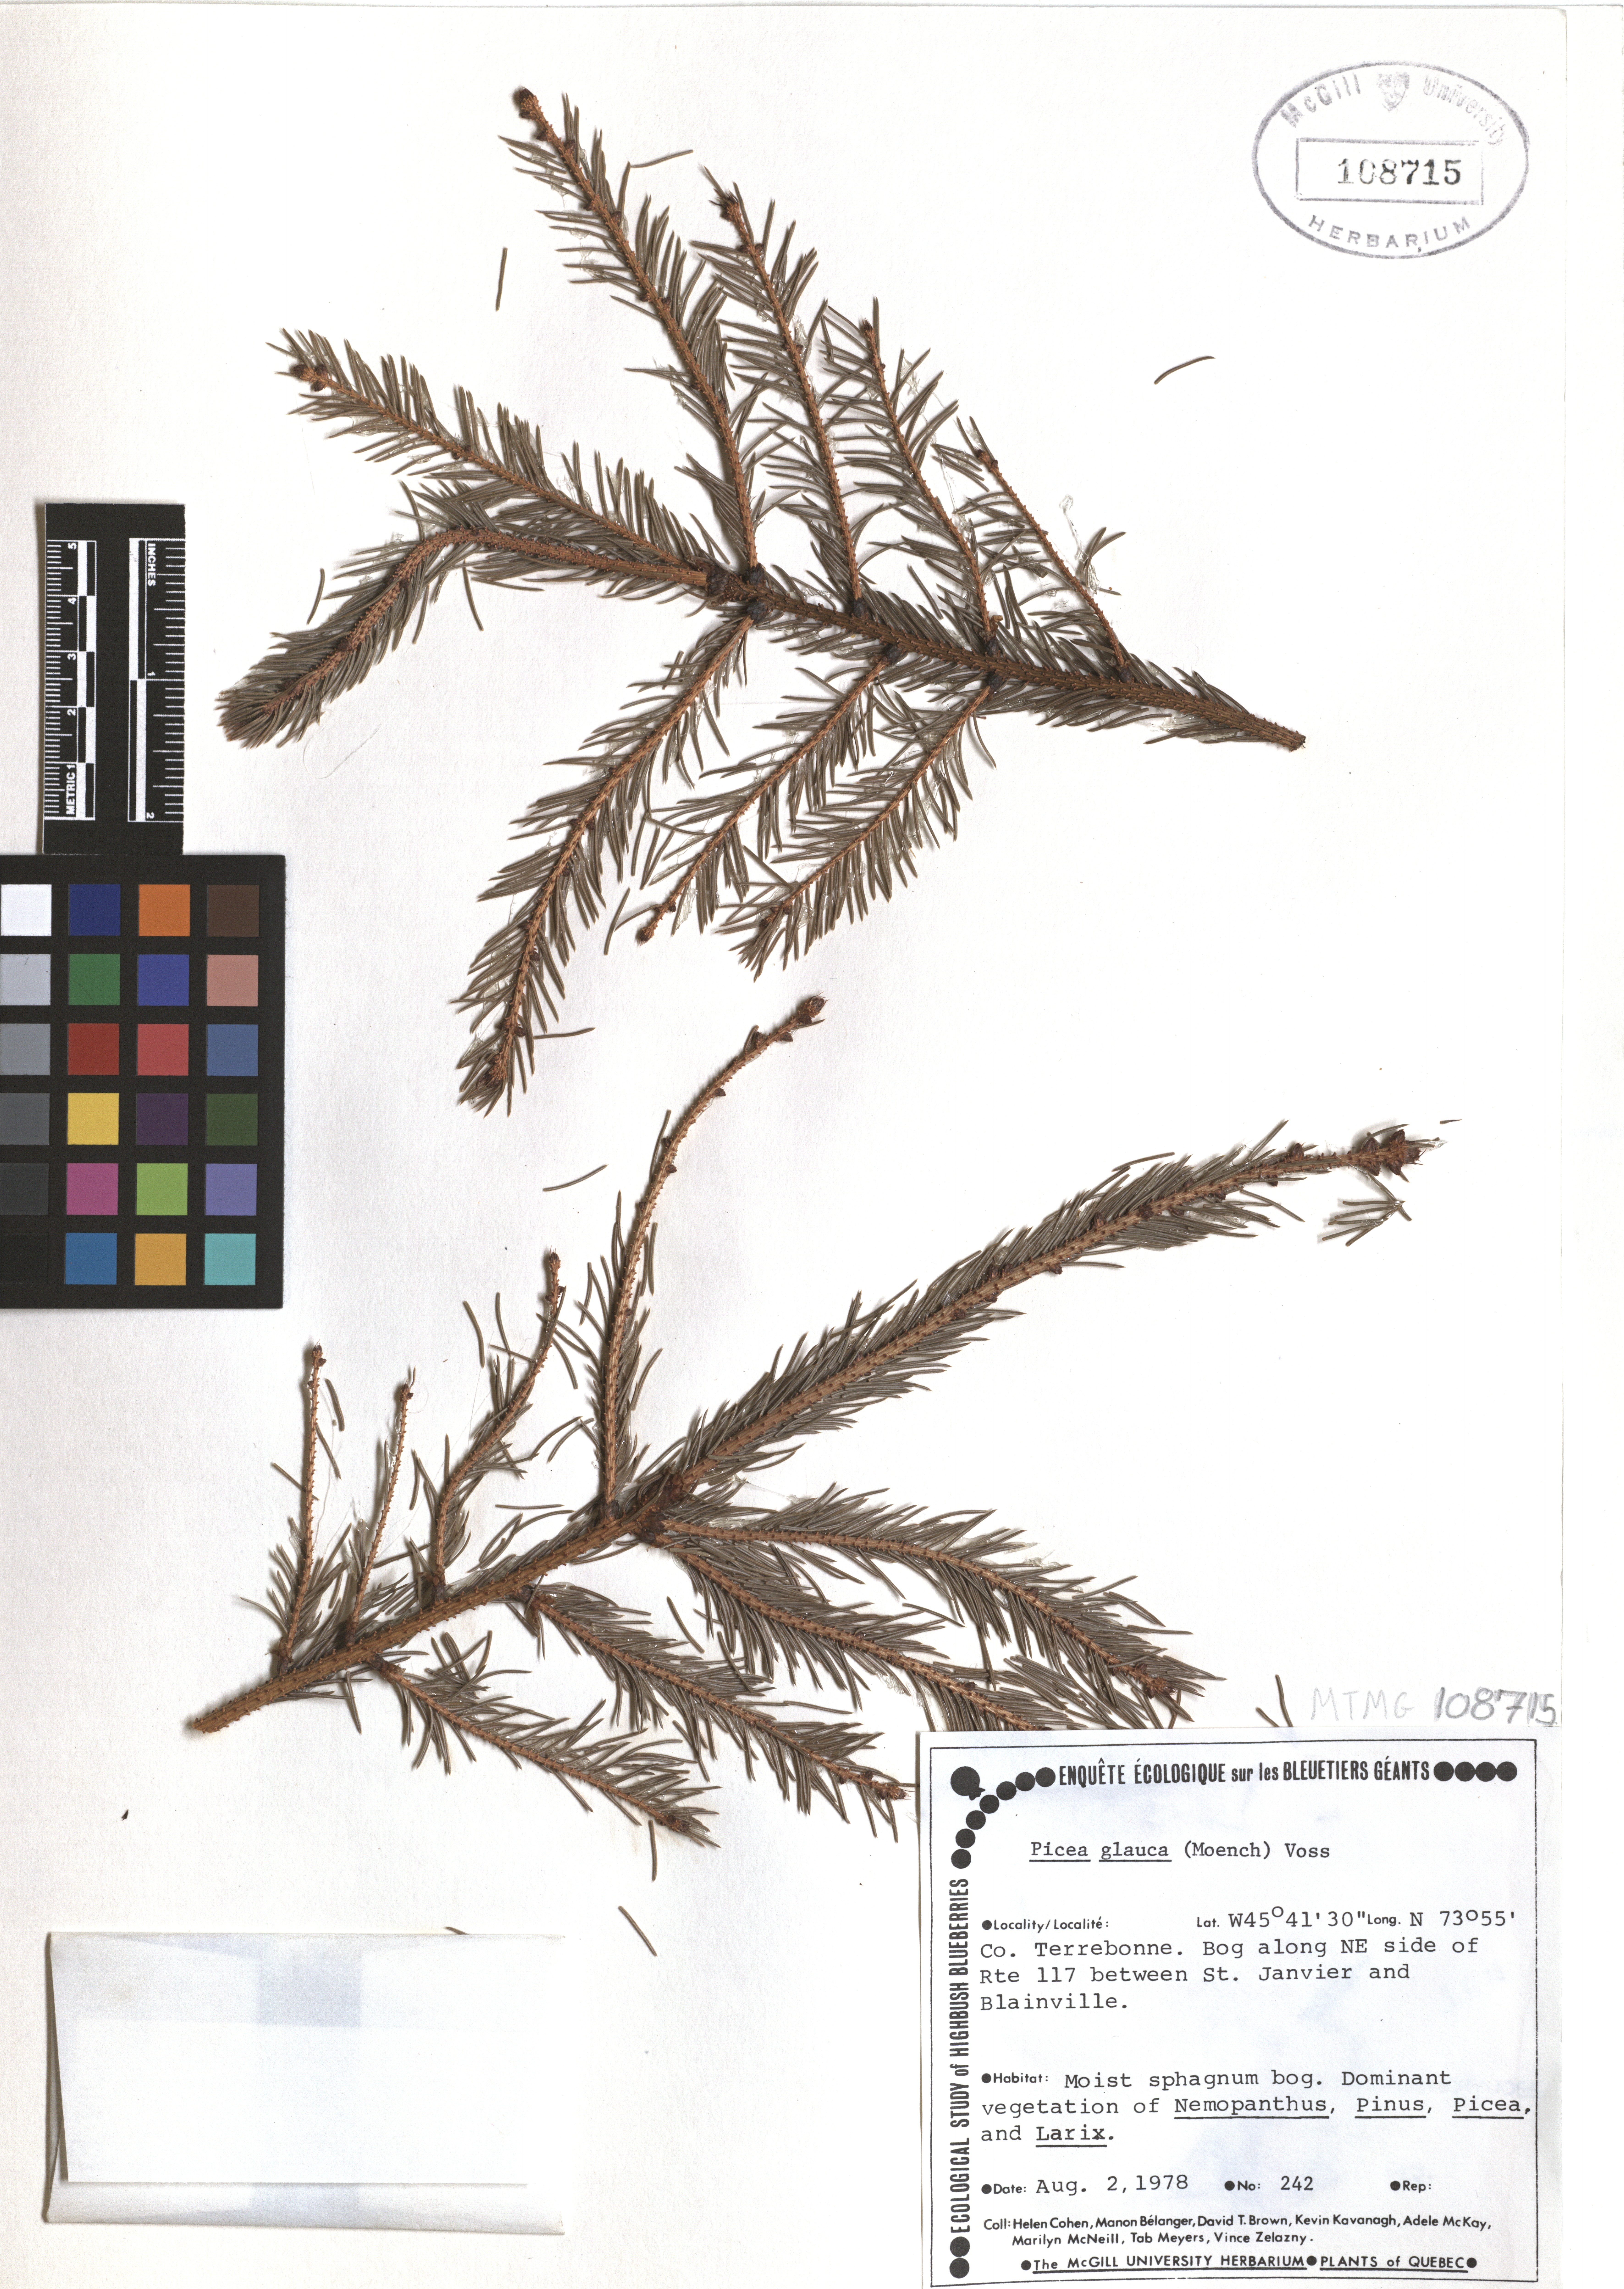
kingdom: Plantae
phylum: Tracheophyta
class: Pinopsida
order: Pinales
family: Pinaceae
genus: Picea
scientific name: Picea glauca
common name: White spruce
